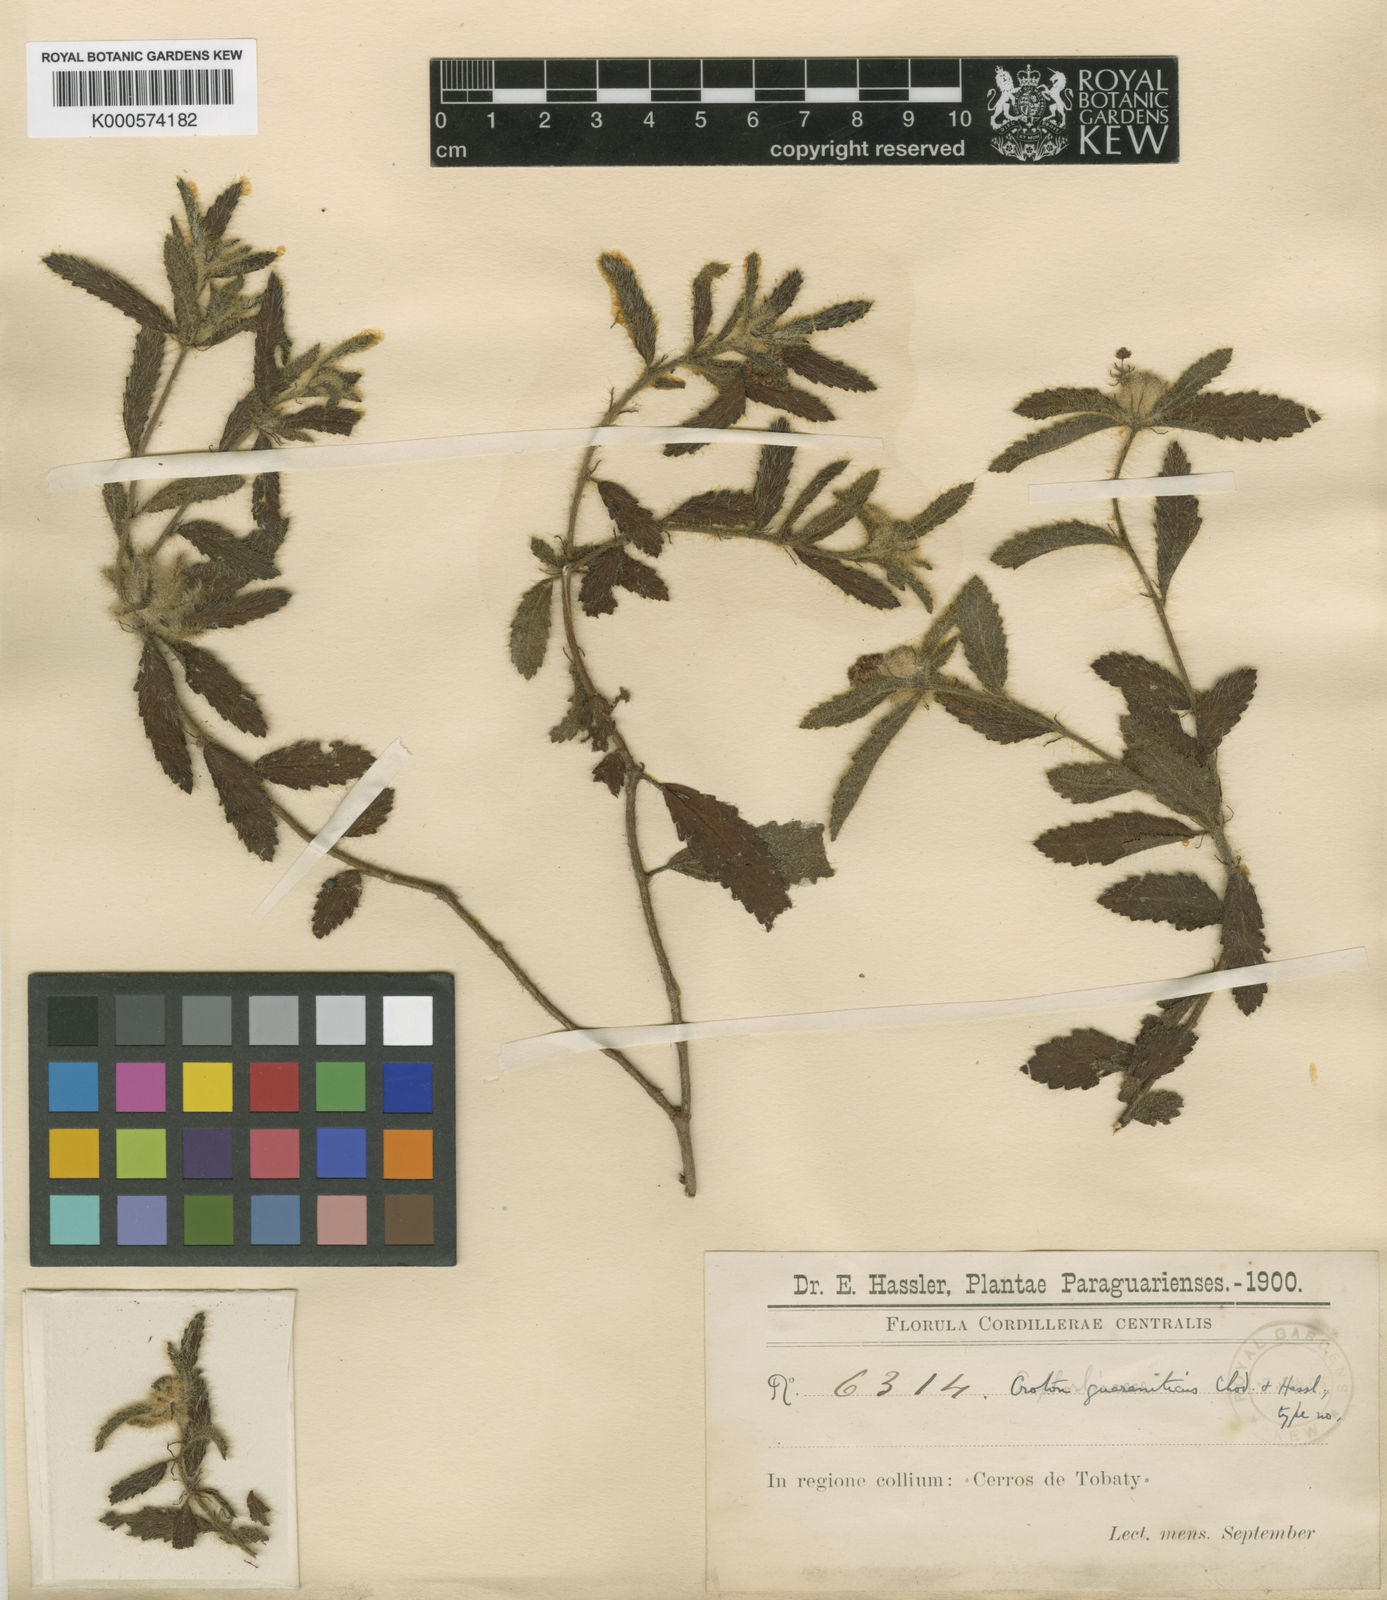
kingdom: Plantae
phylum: Tracheophyta
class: Magnoliopsida
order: Malpighiales
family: Euphorbiaceae
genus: Croton
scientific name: Croton aberrans
